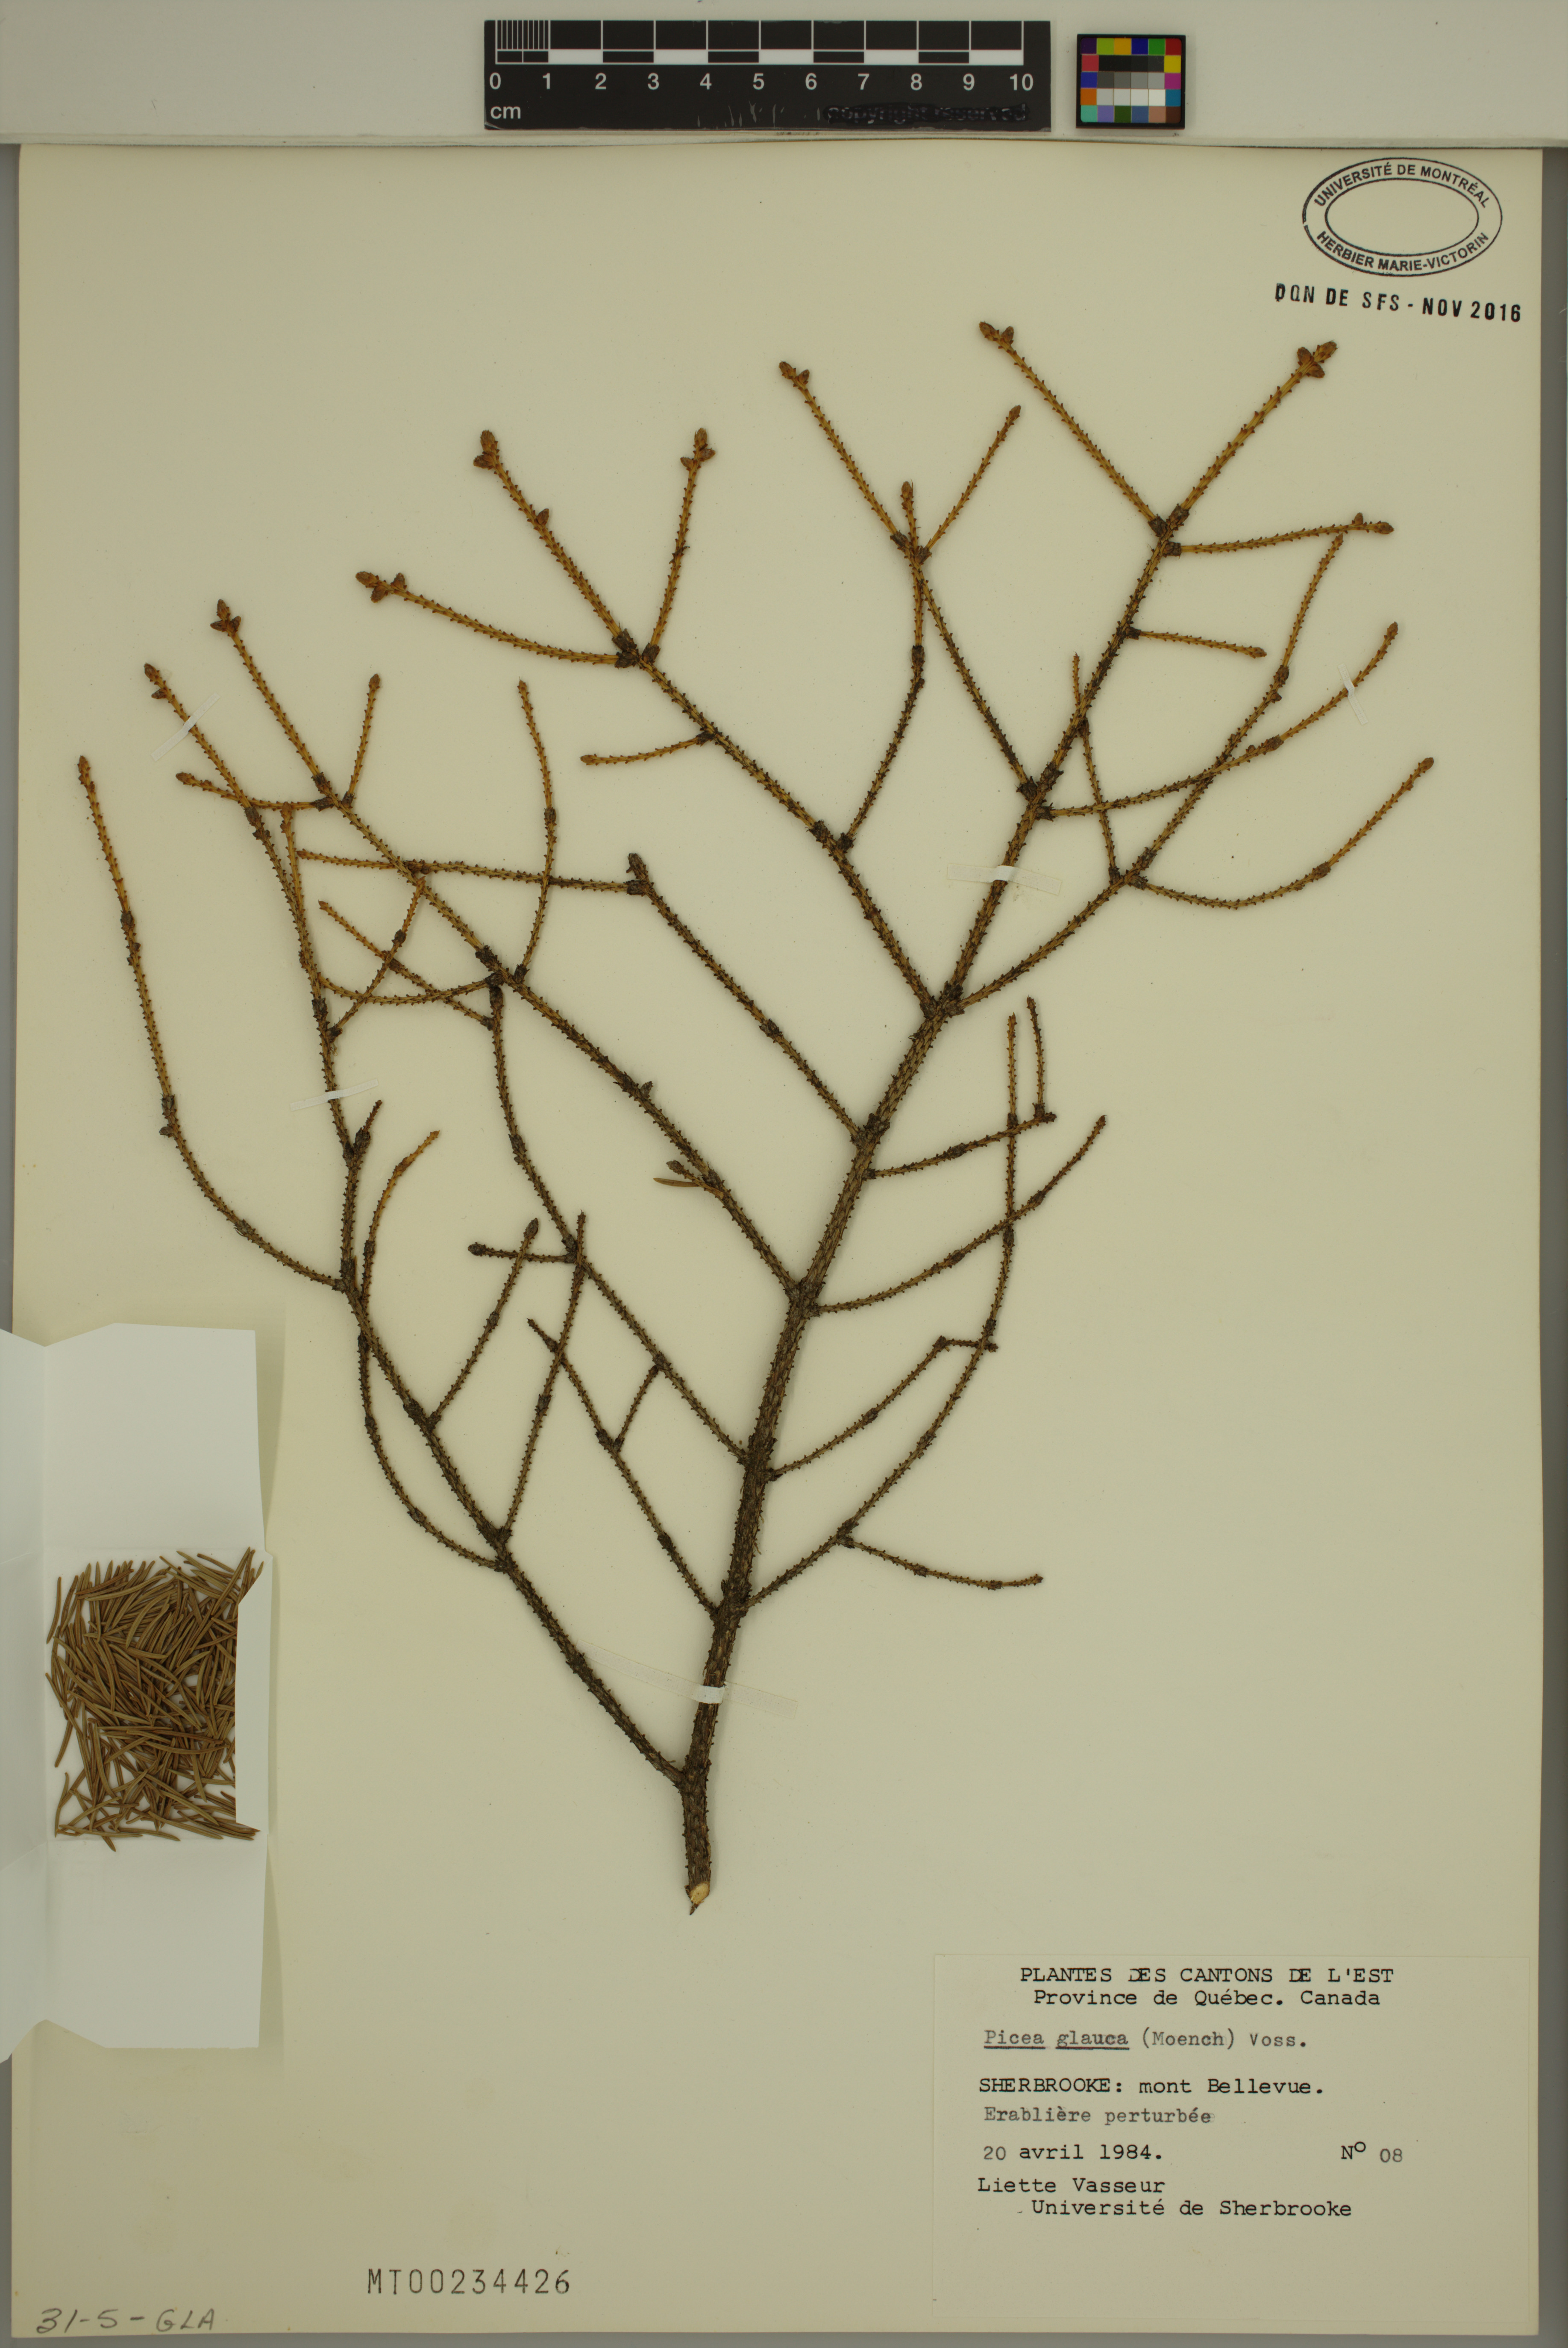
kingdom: Plantae
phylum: Tracheophyta
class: Pinopsida
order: Pinales
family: Pinaceae
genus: Picea
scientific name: Picea glauca
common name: White spruce
